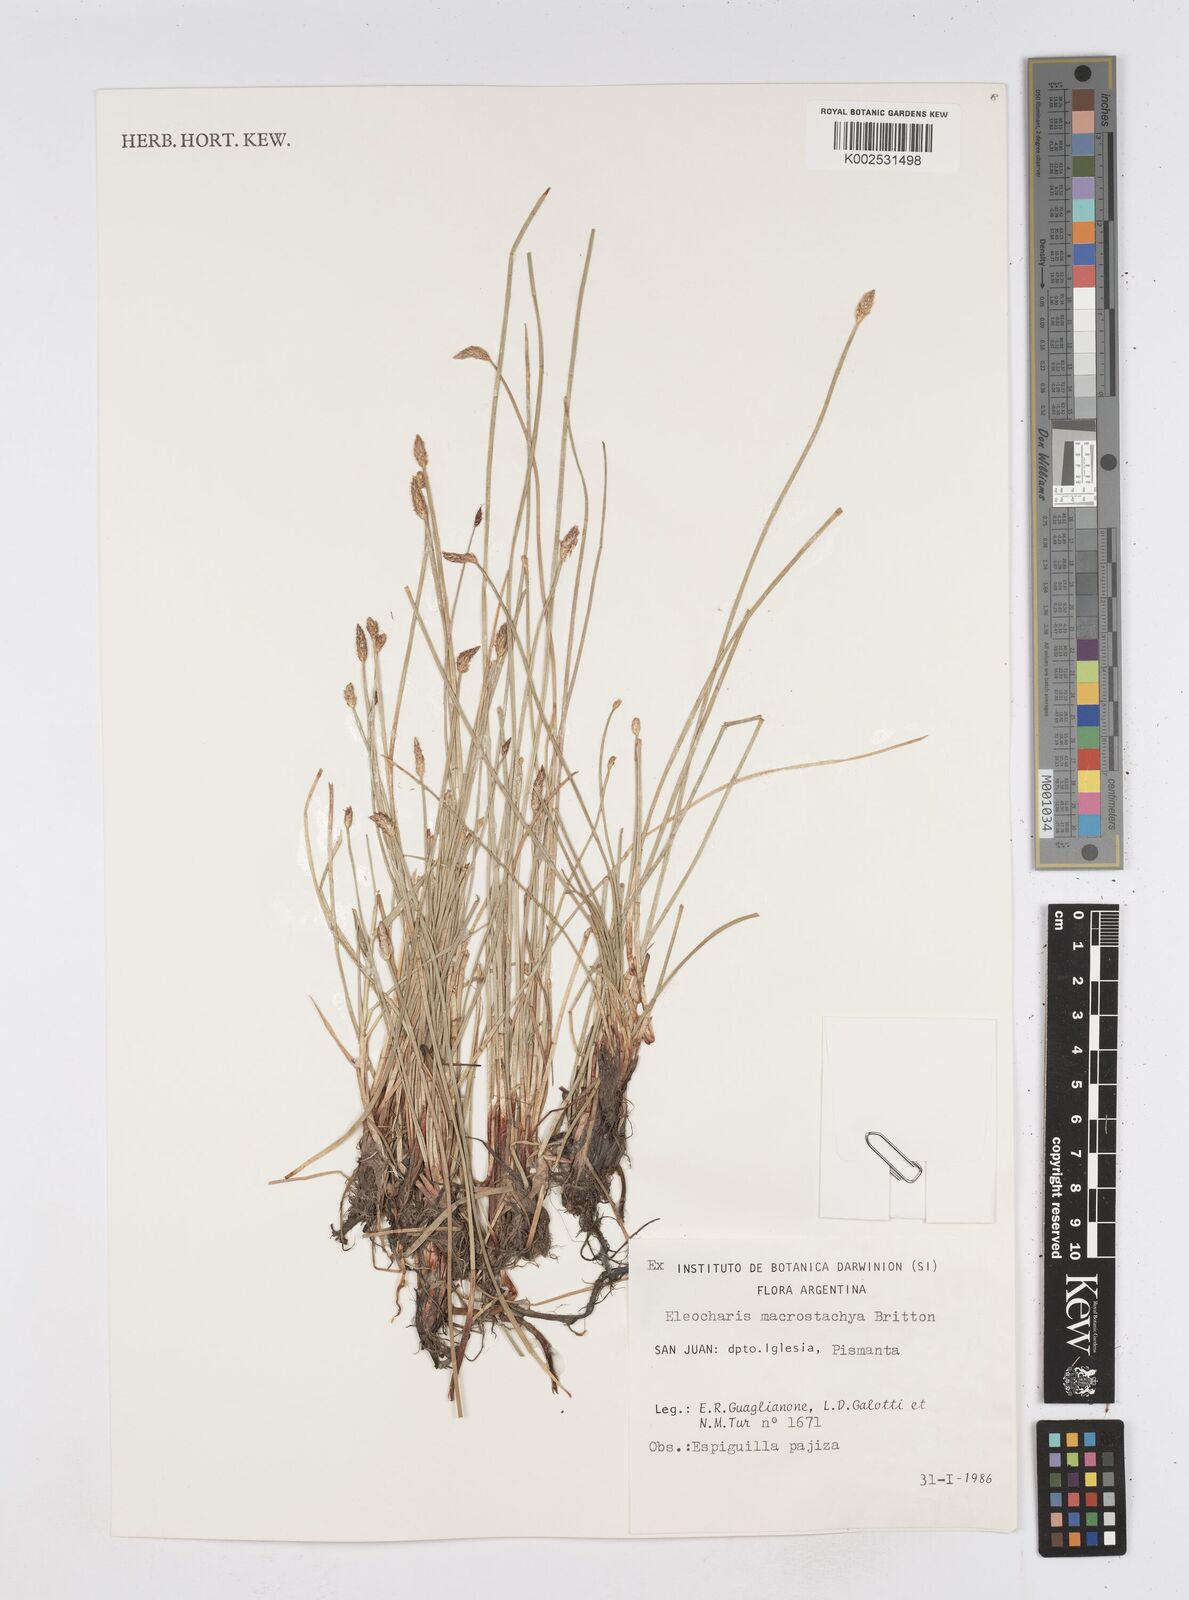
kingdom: Plantae
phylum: Tracheophyta
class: Liliopsida
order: Poales
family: Cyperaceae
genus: Eleocharis
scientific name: Eleocharis macrostachya
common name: Pale spikerush
